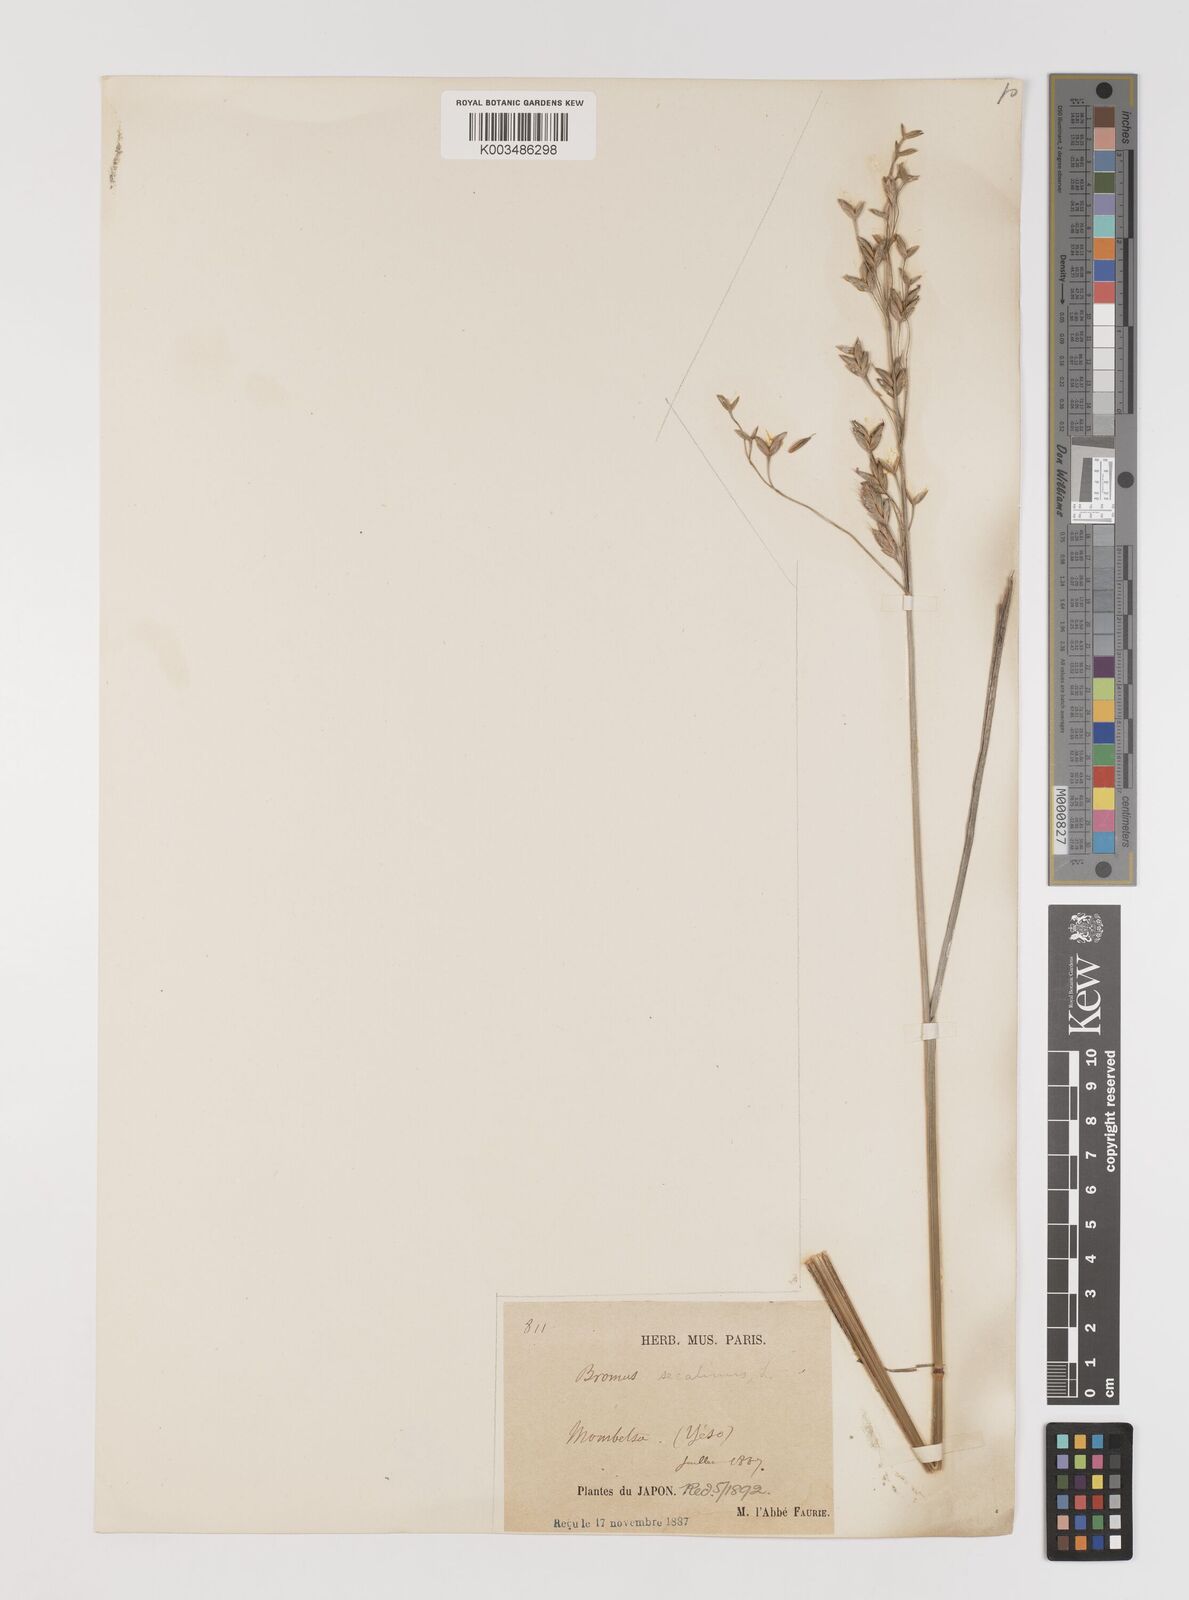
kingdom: Plantae
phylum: Tracheophyta
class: Liliopsida
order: Poales
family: Poaceae
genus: Bromus
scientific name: Bromus secalinus
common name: Rye brome
